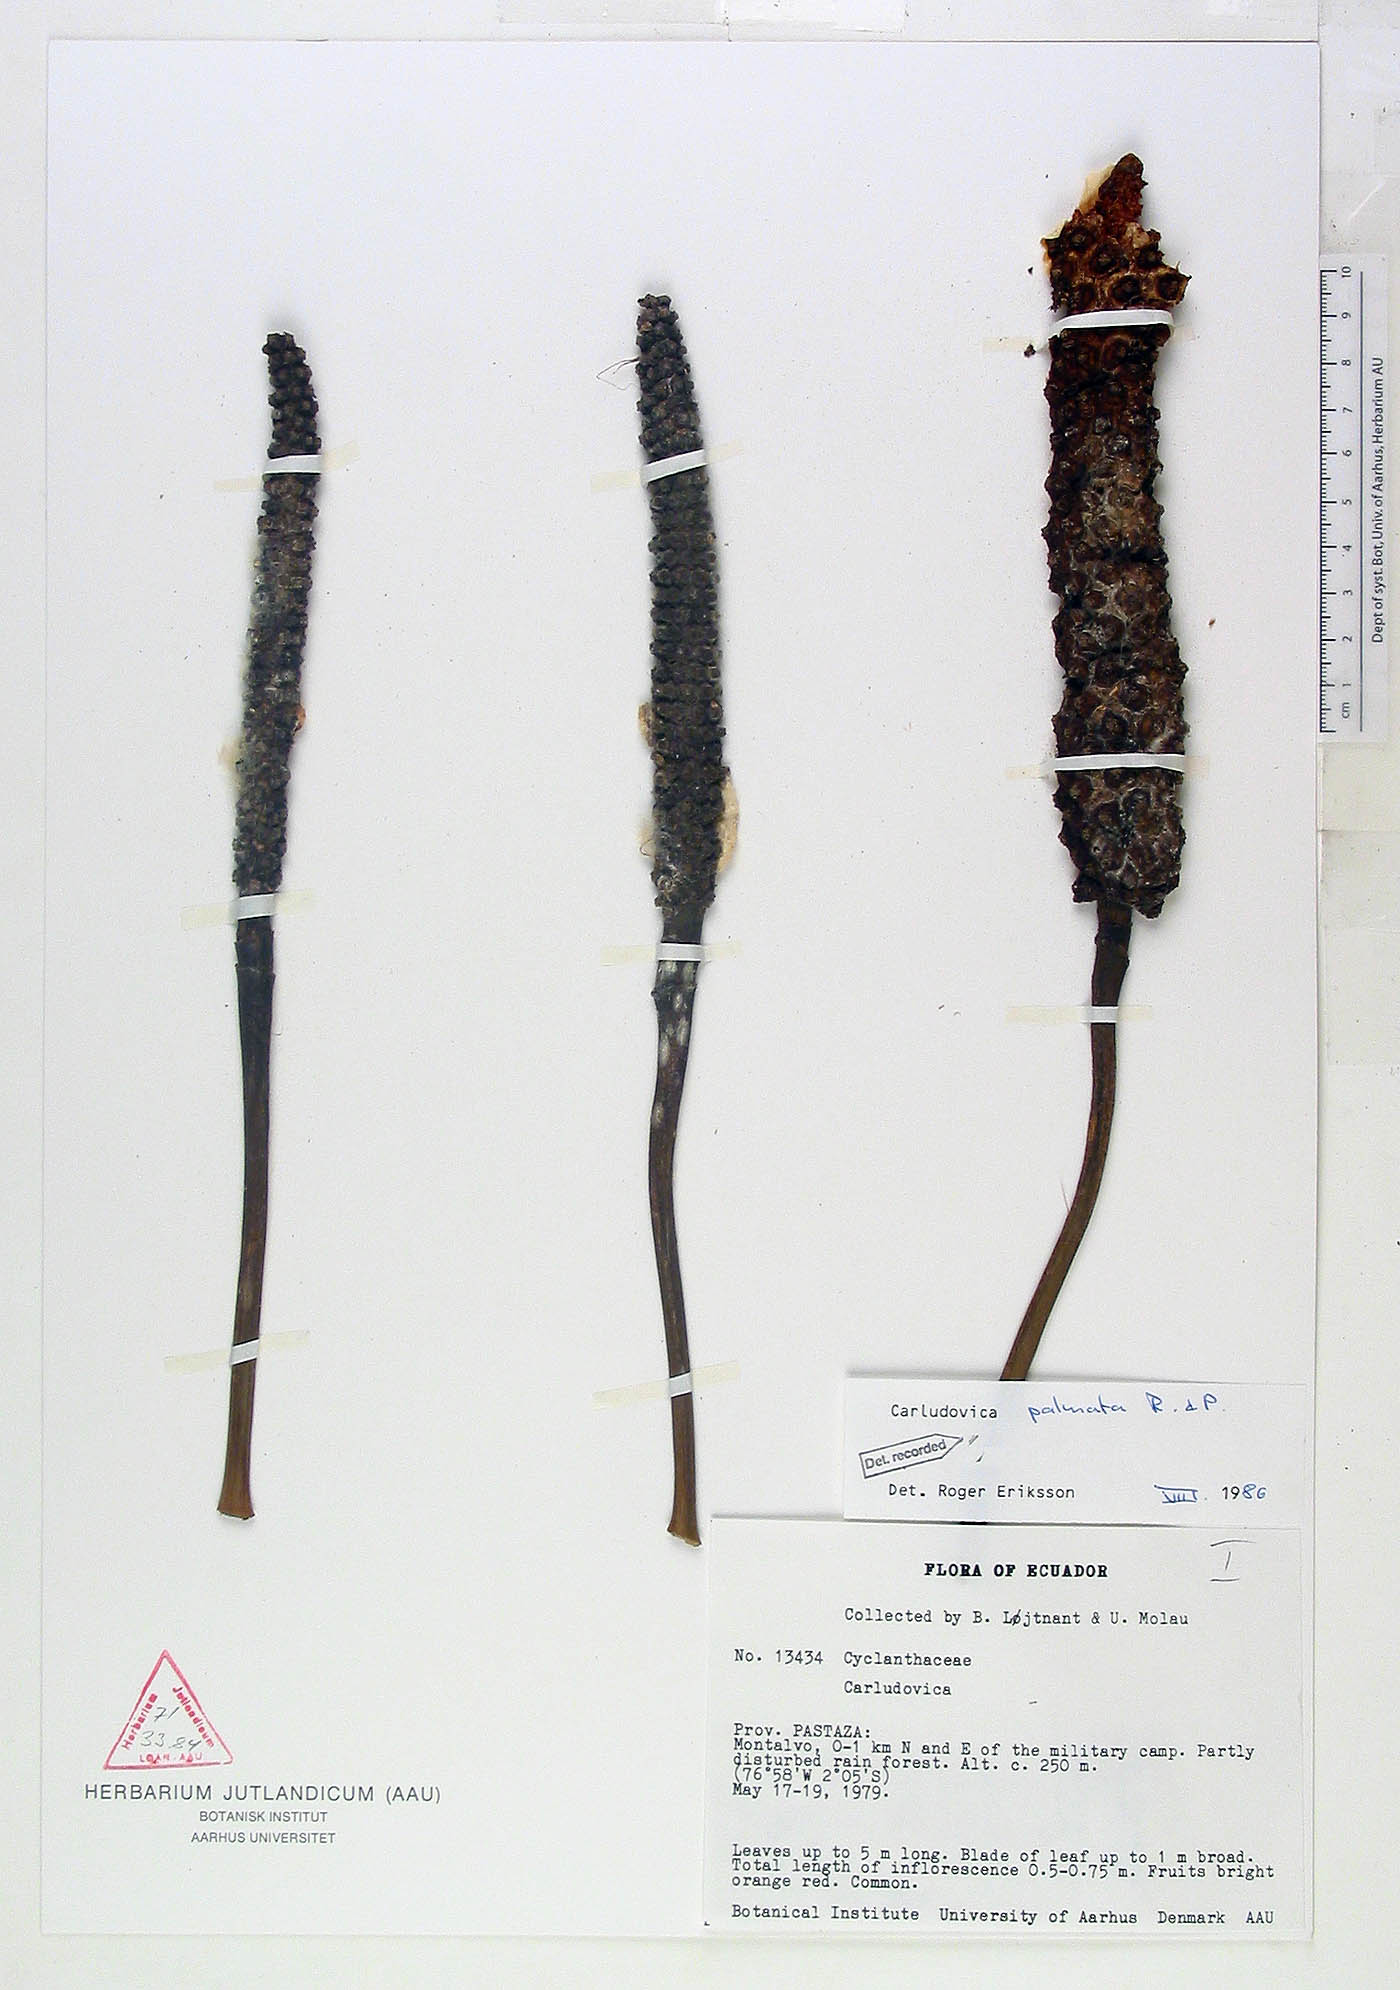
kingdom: Plantae
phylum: Tracheophyta
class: Liliopsida
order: Pandanales
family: Cyclanthaceae
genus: Carludovica
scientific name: Carludovica palmata
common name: Panama hat plant
